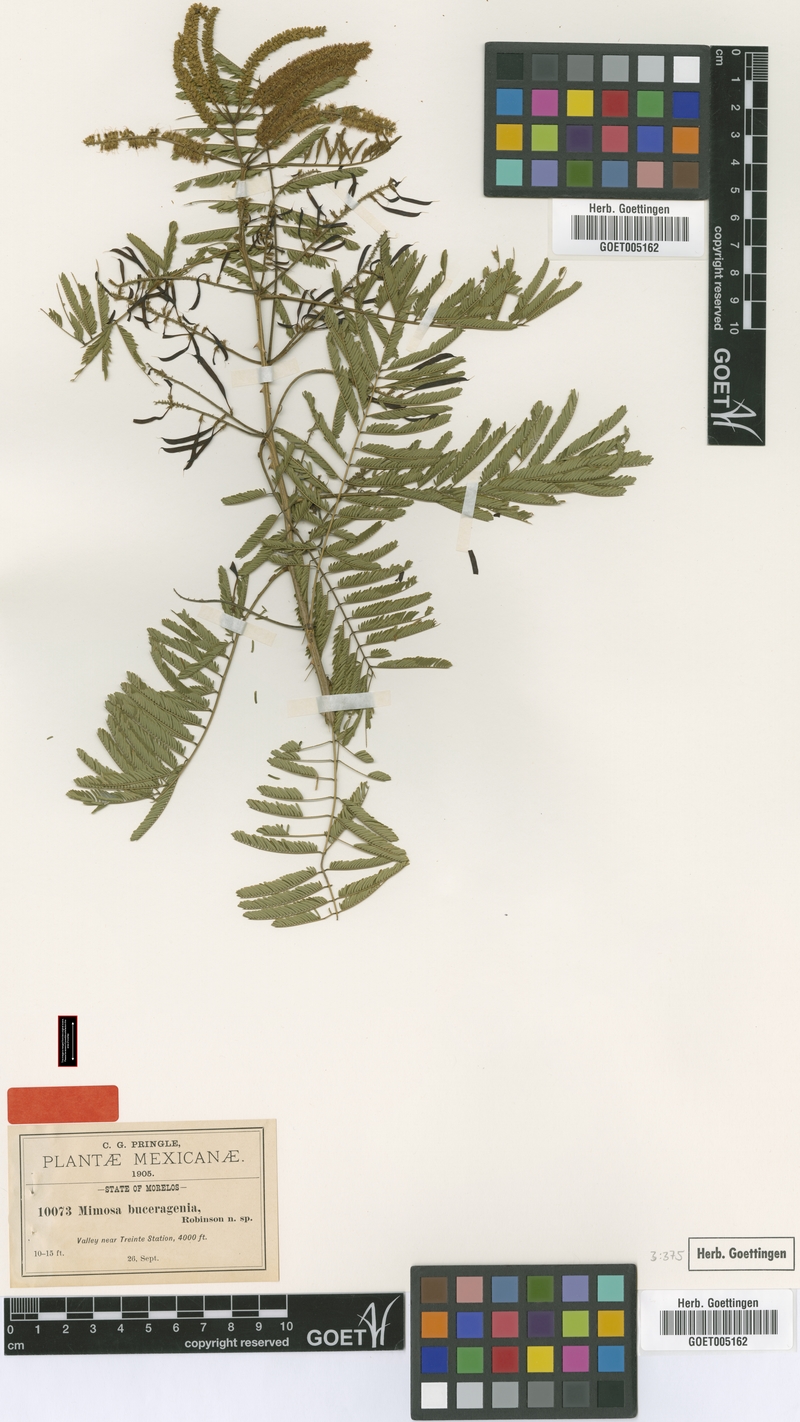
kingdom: Plantae
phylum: Tracheophyta
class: Magnoliopsida
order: Fabales
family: Fabaceae
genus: Piptadenia
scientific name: Piptadenia retusa
